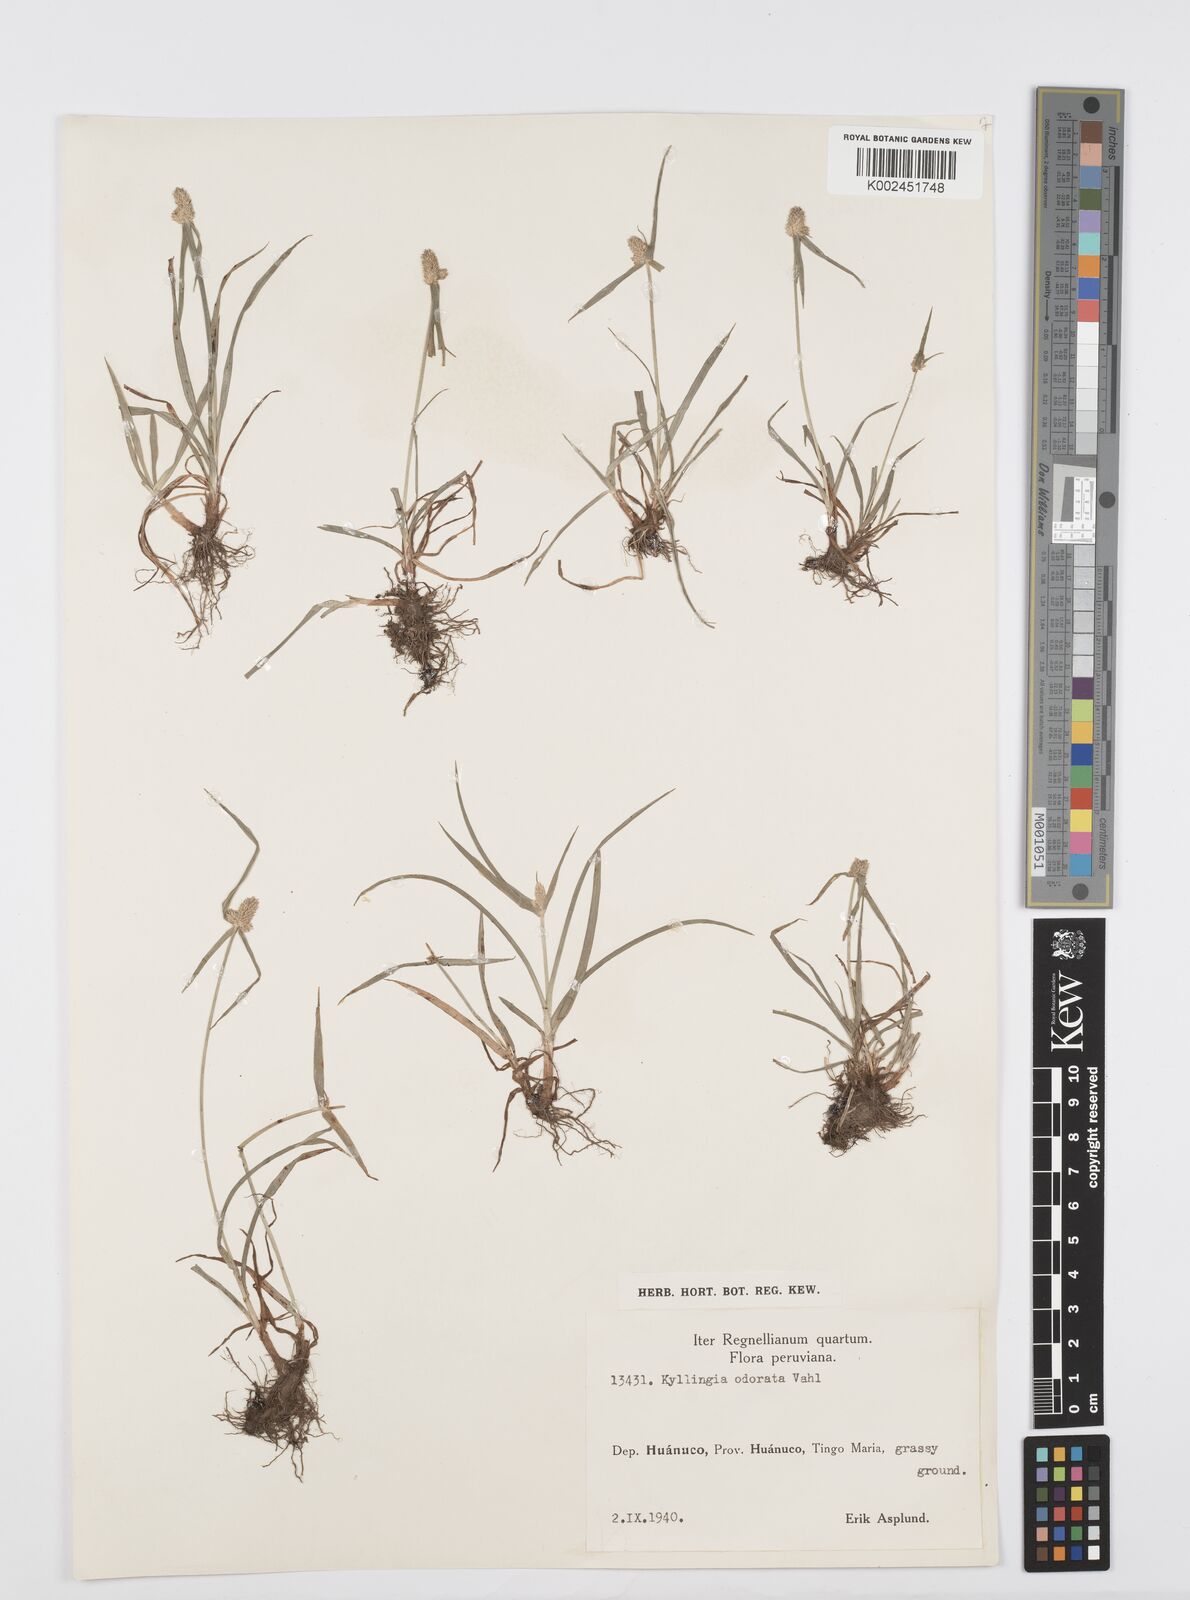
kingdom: Plantae
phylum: Tracheophyta
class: Liliopsida
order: Poales
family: Cyperaceae
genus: Cyperus
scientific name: Cyperus
